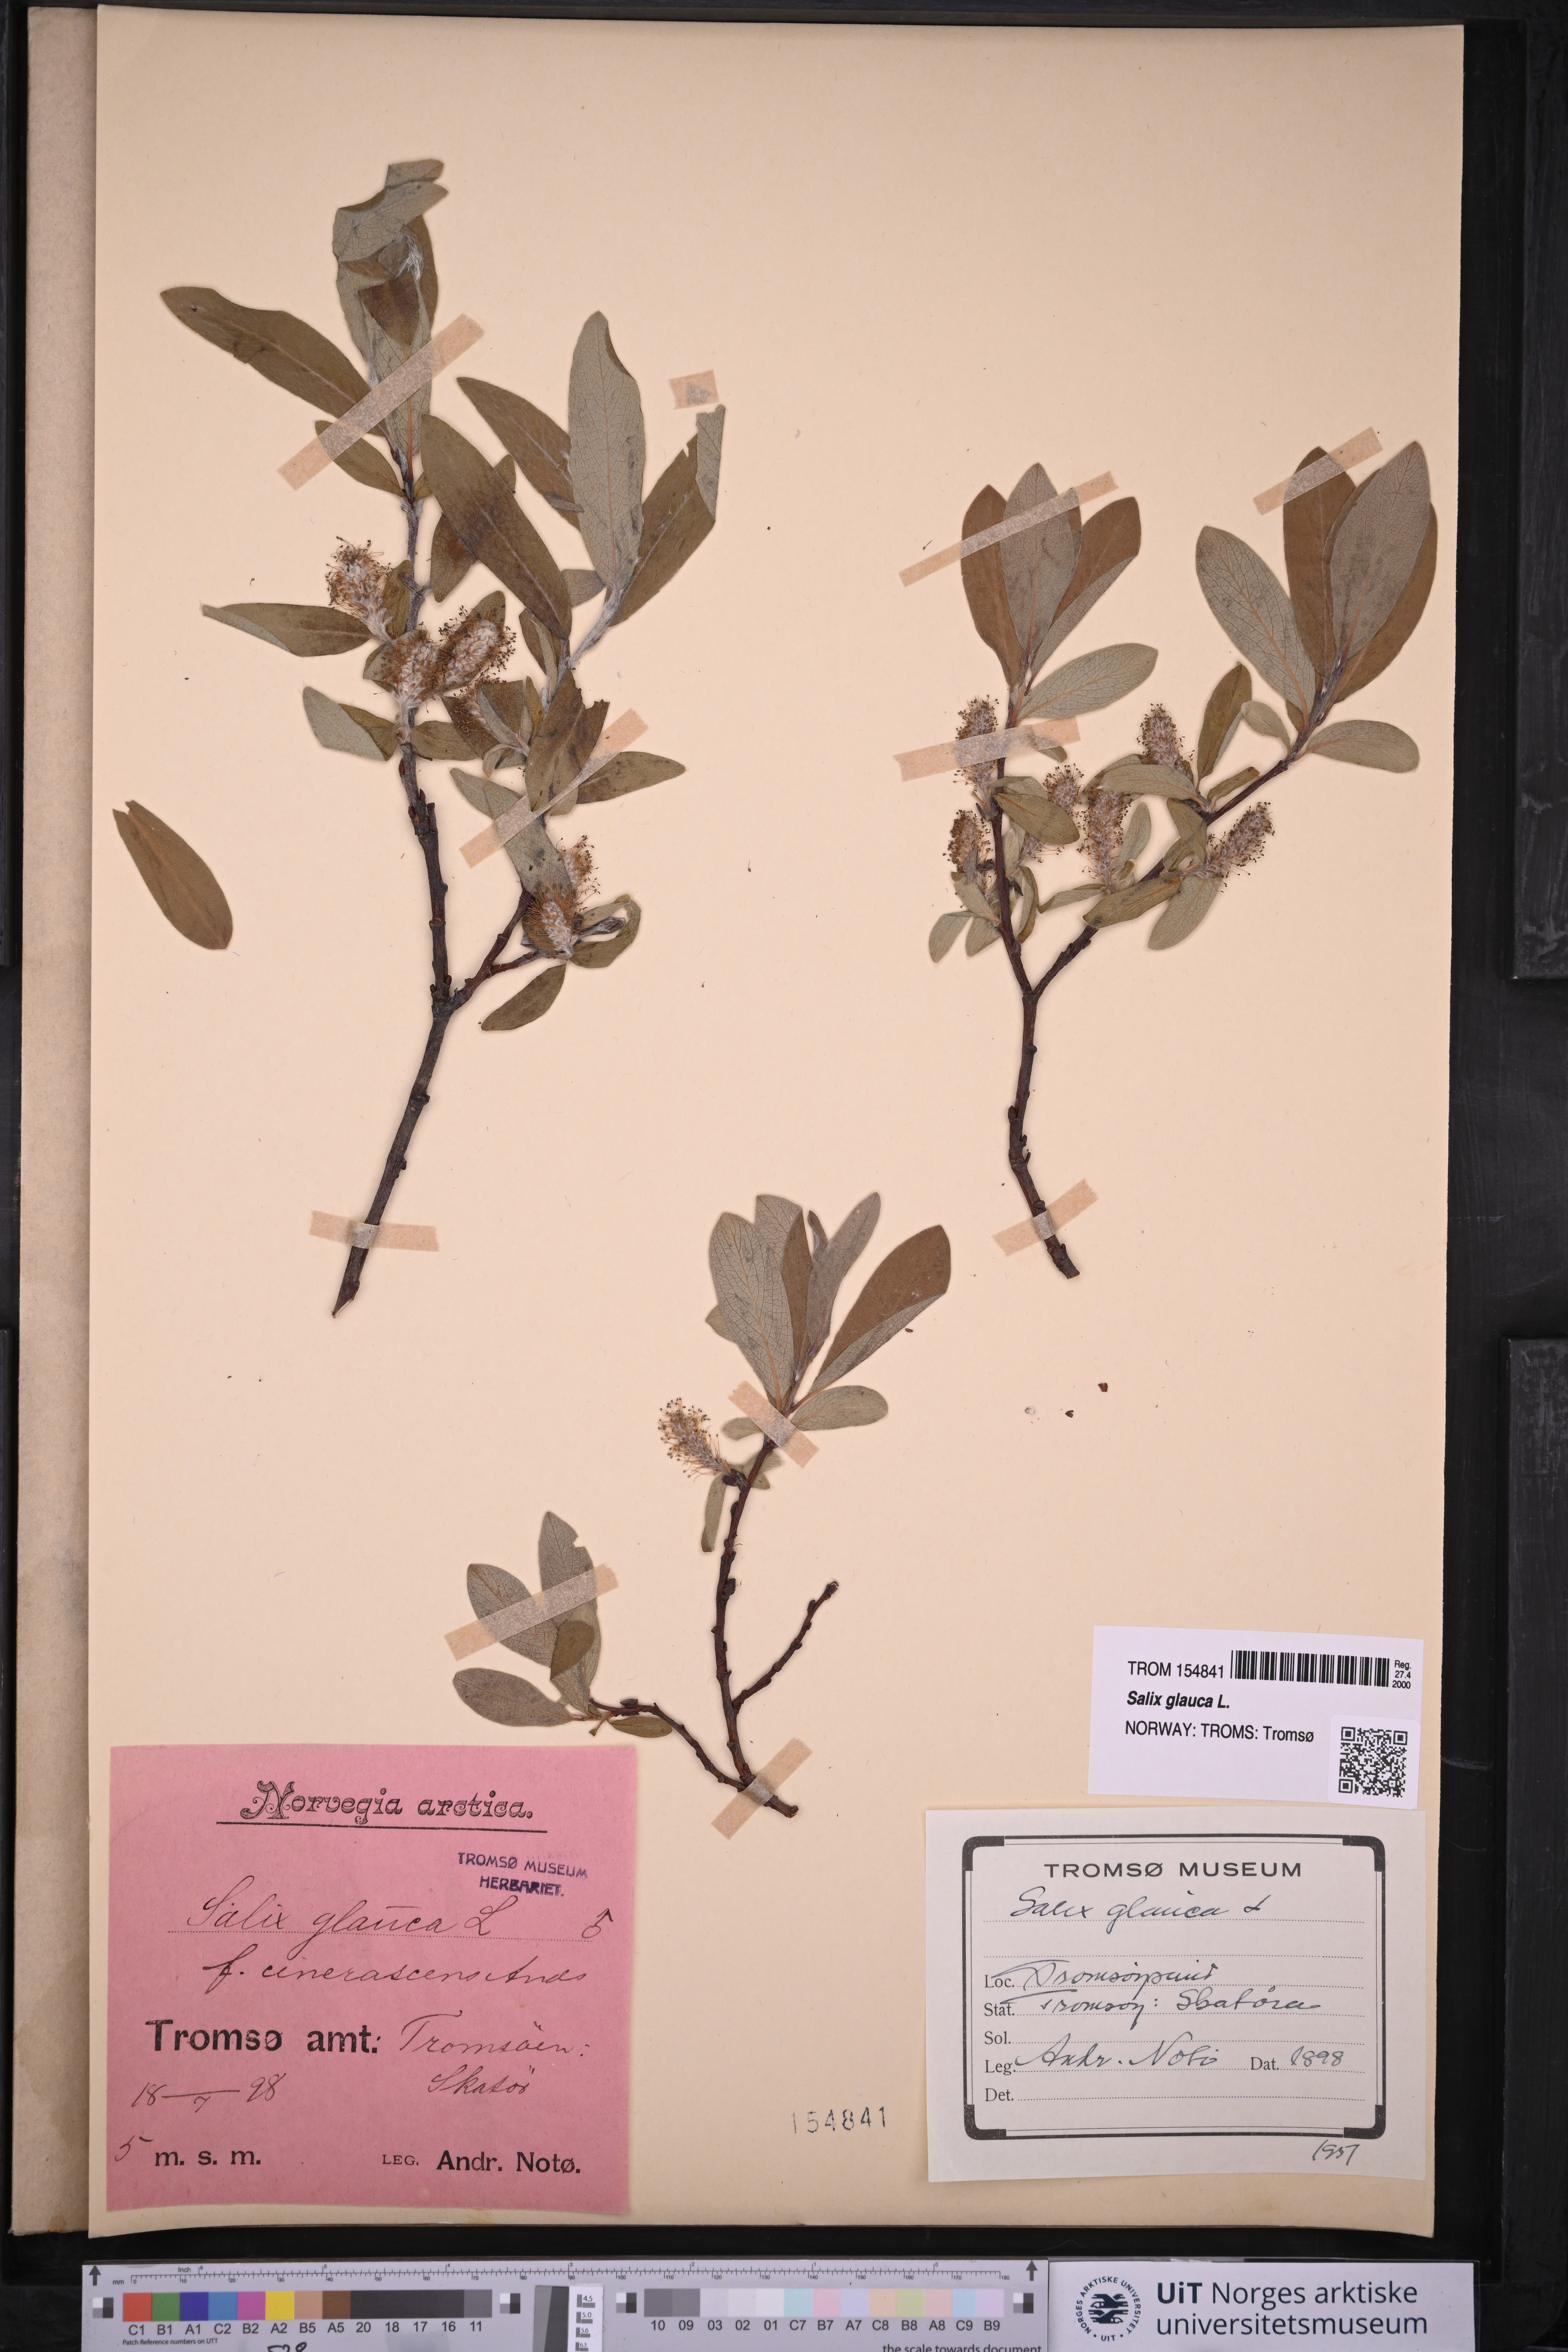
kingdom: Plantae
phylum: Tracheophyta
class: Magnoliopsida
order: Malpighiales
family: Salicaceae
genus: Salix
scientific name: Salix glauca
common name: Glaucous willow
